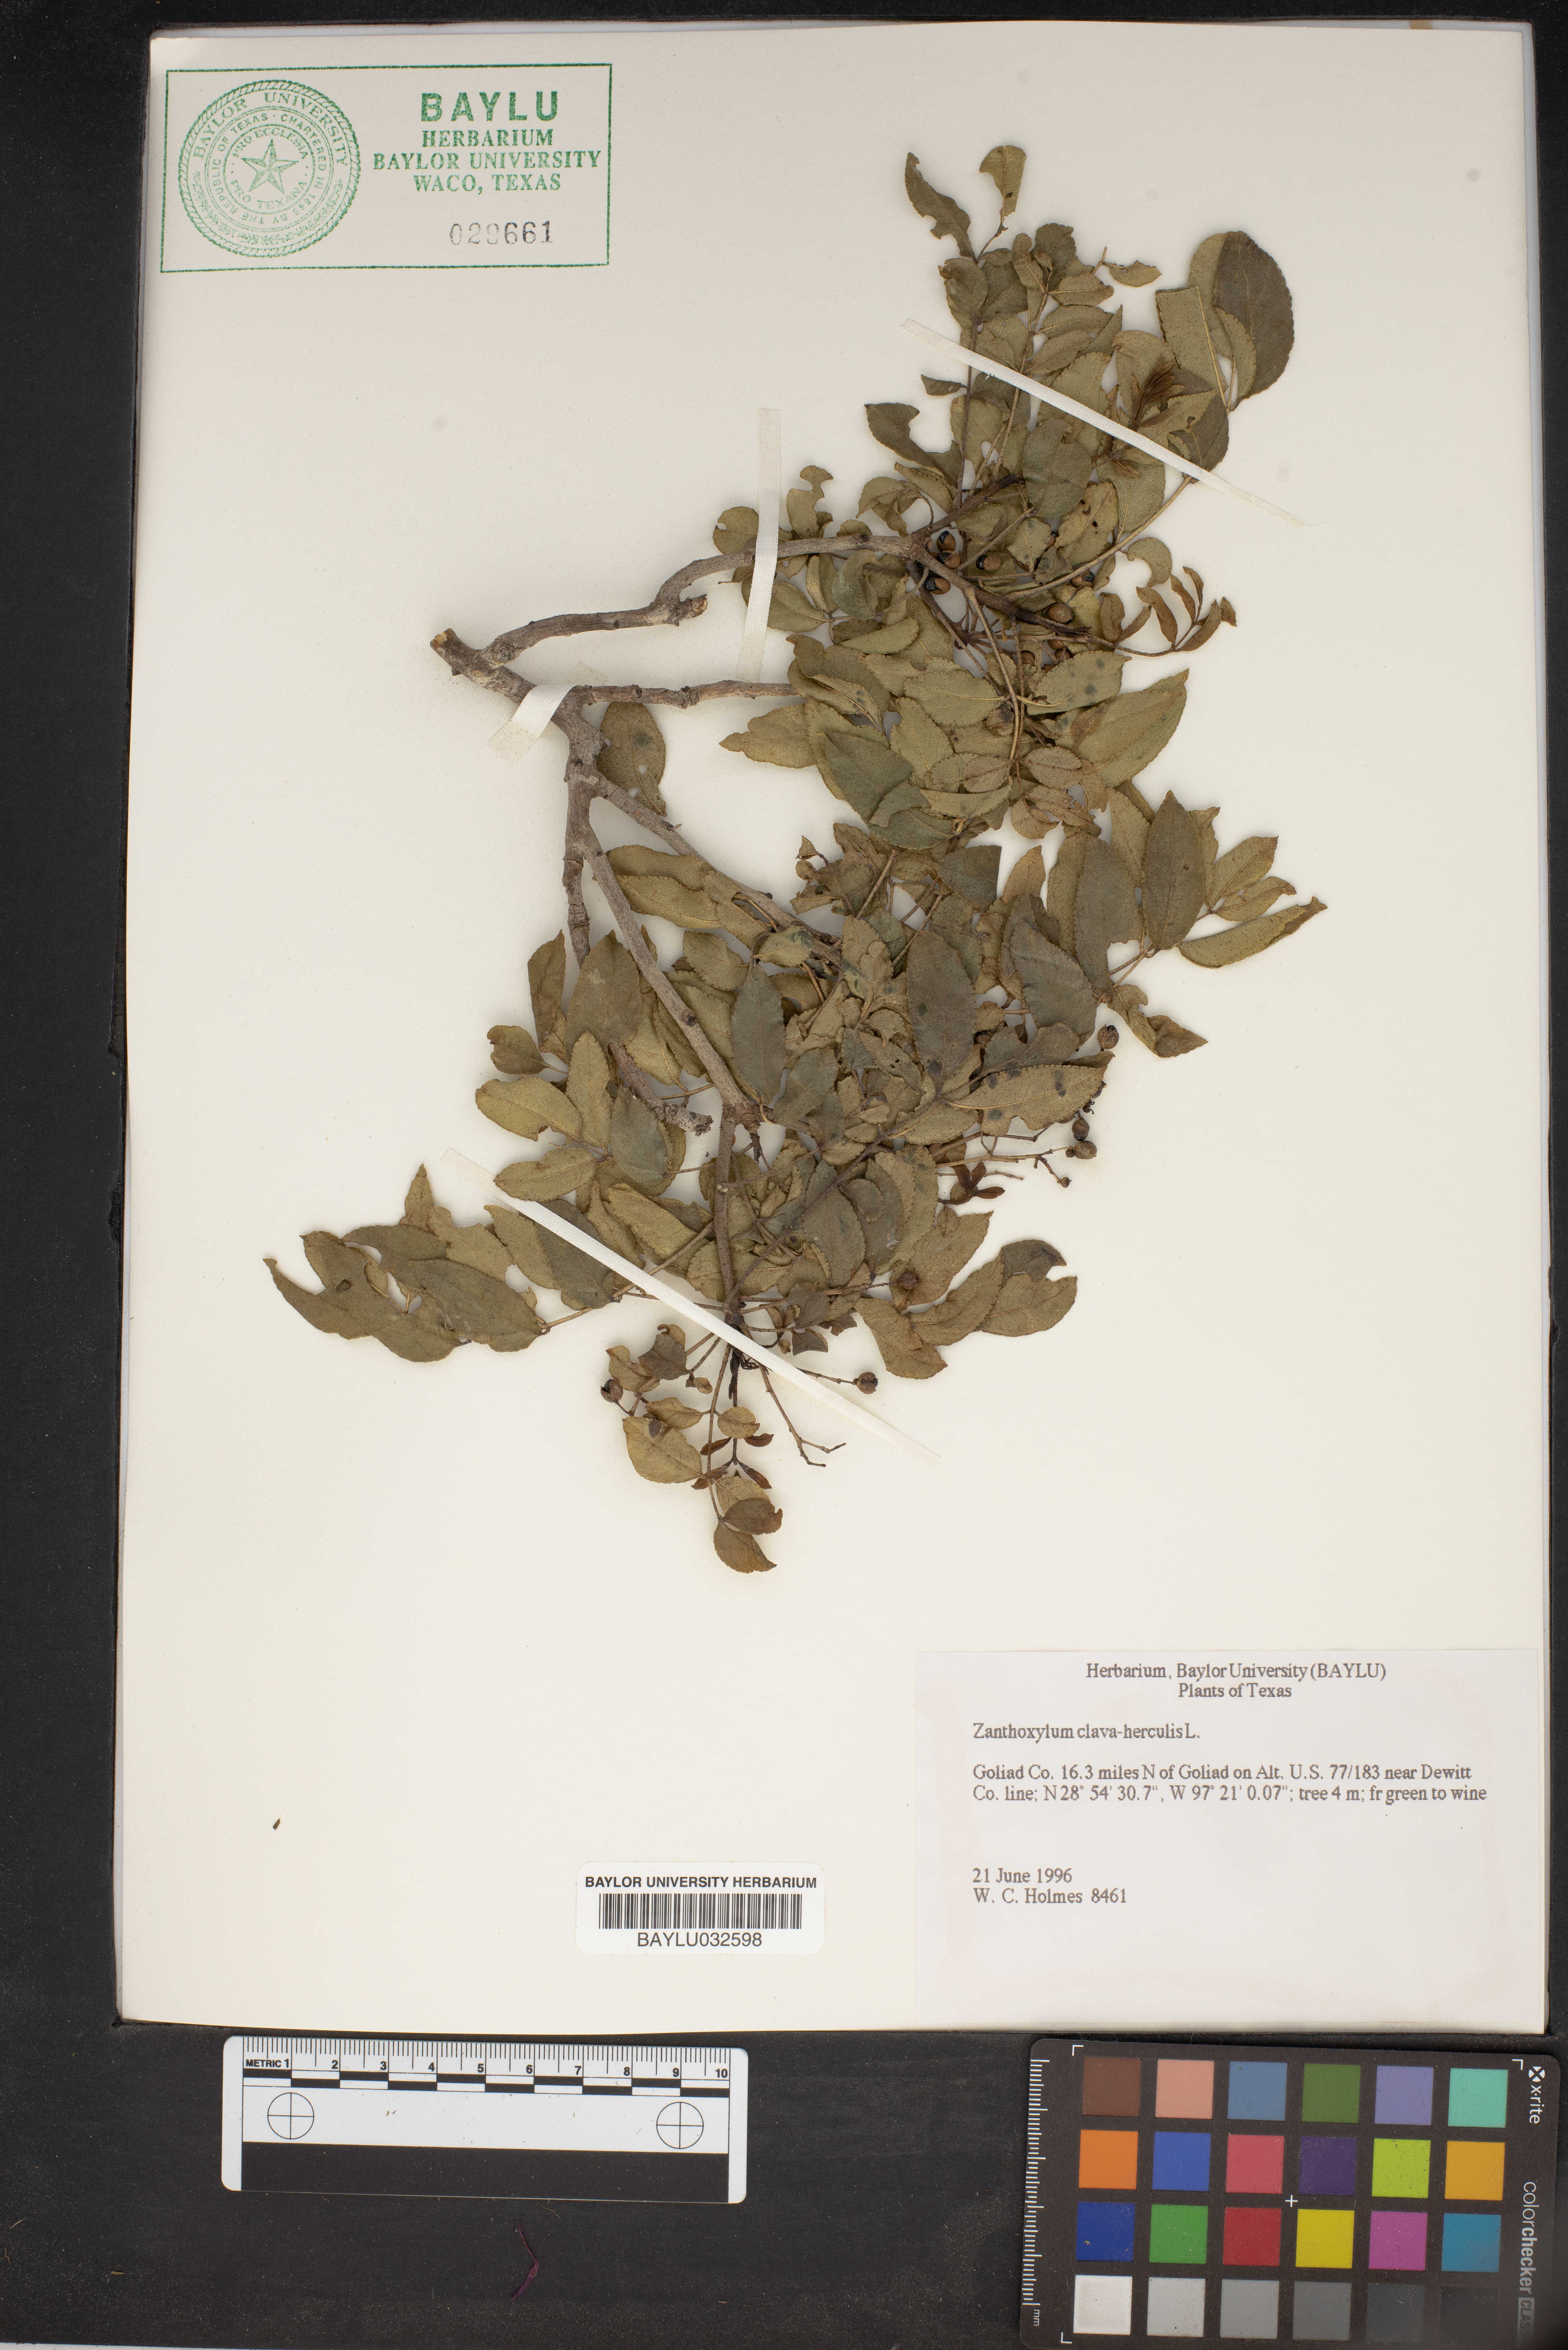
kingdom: Plantae
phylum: Tracheophyta
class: Magnoliopsida
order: Sapindales
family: Rutaceae
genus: Zanthoxylum
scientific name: Zanthoxylum avicennae
